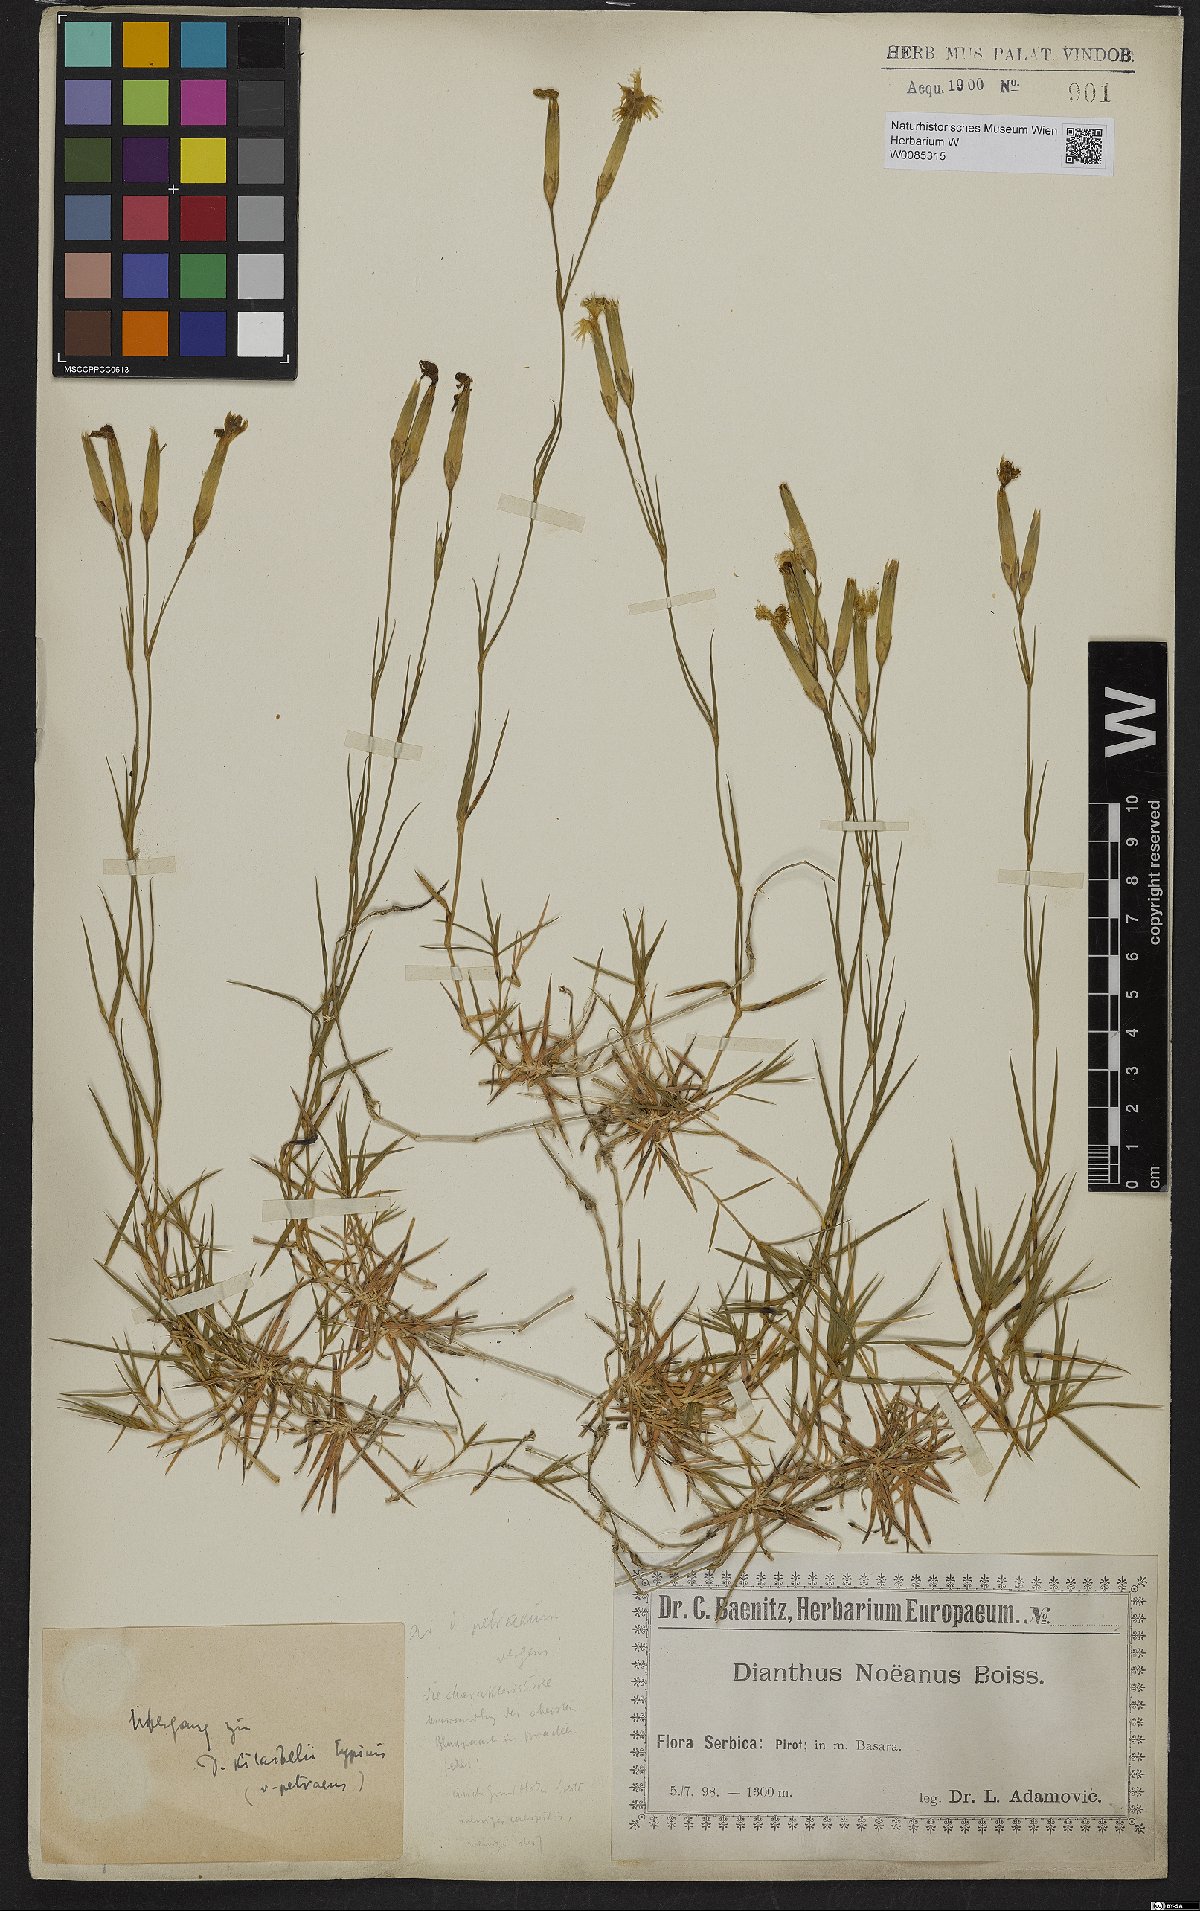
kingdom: Plantae
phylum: Tracheophyta
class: Magnoliopsida
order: Caryophyllales
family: Caryophyllaceae
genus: Dianthus
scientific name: Dianthus noeanus
